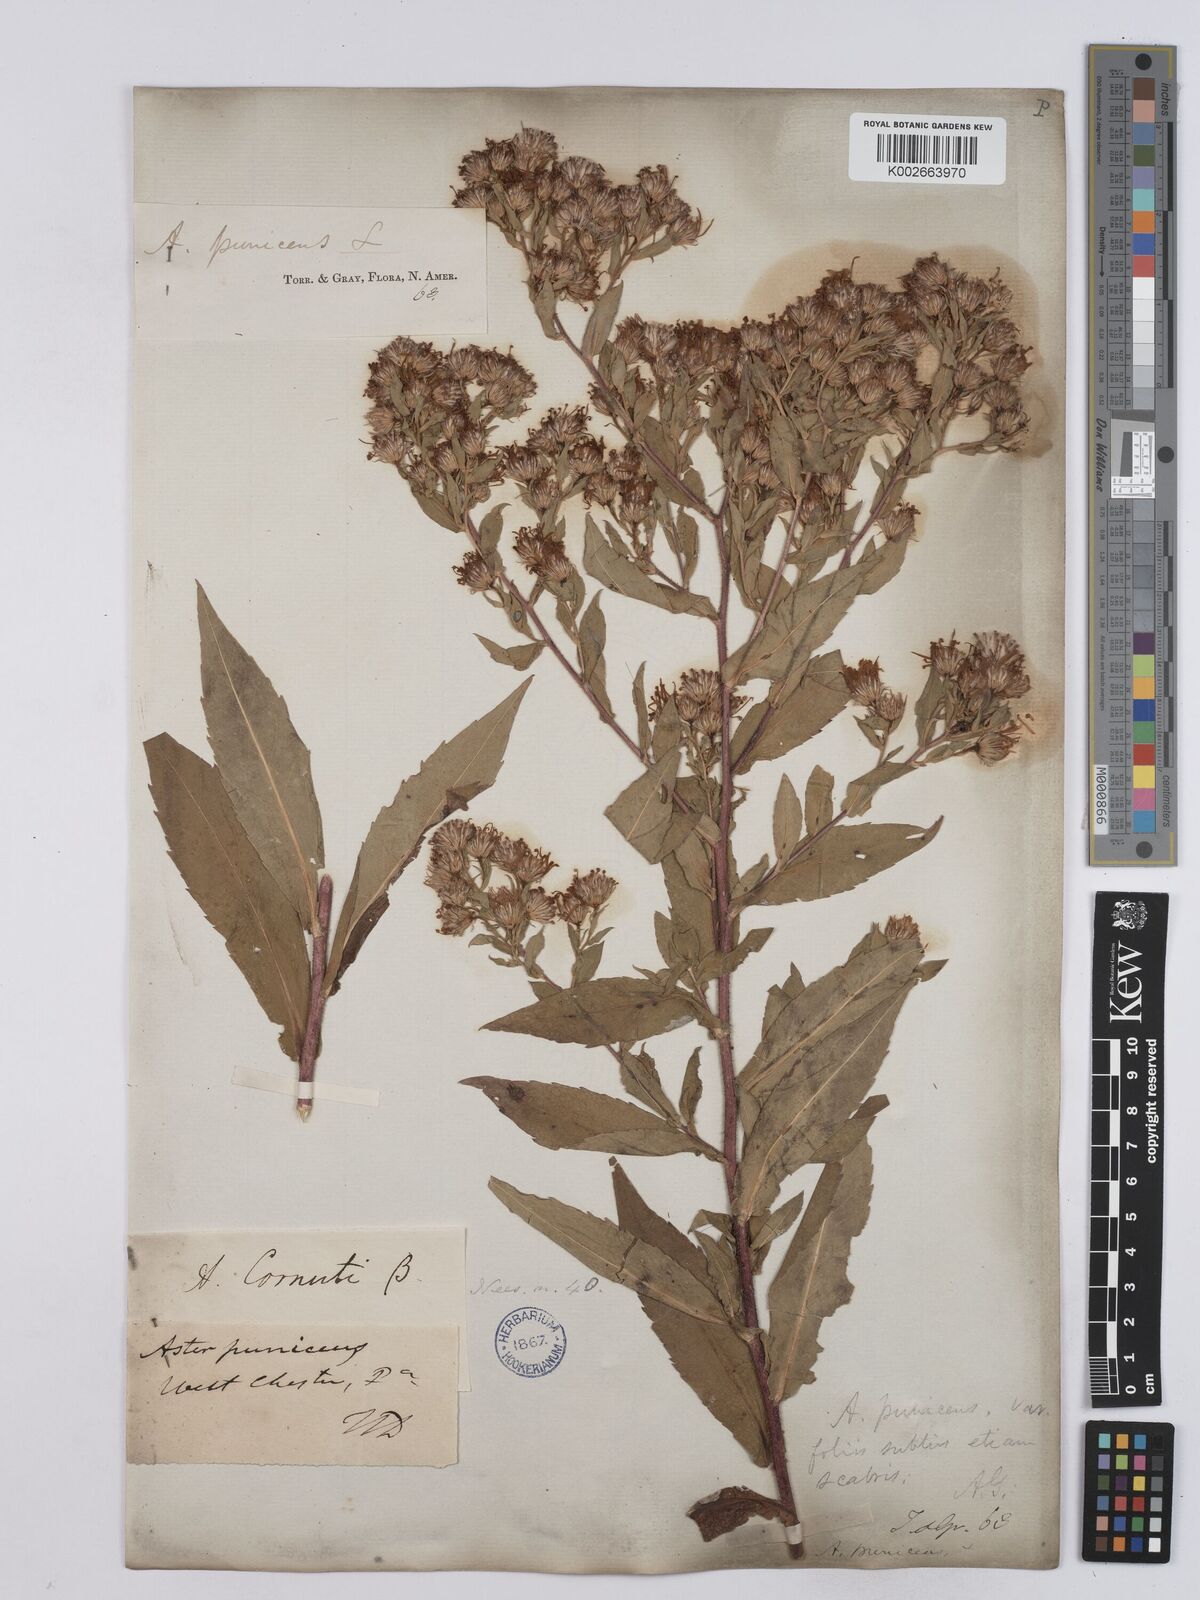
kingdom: Plantae
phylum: Tracheophyta
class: Magnoliopsida
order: Asterales
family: Asteraceae
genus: Symphyotrichum
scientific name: Symphyotrichum puniceum
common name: Bog aster
